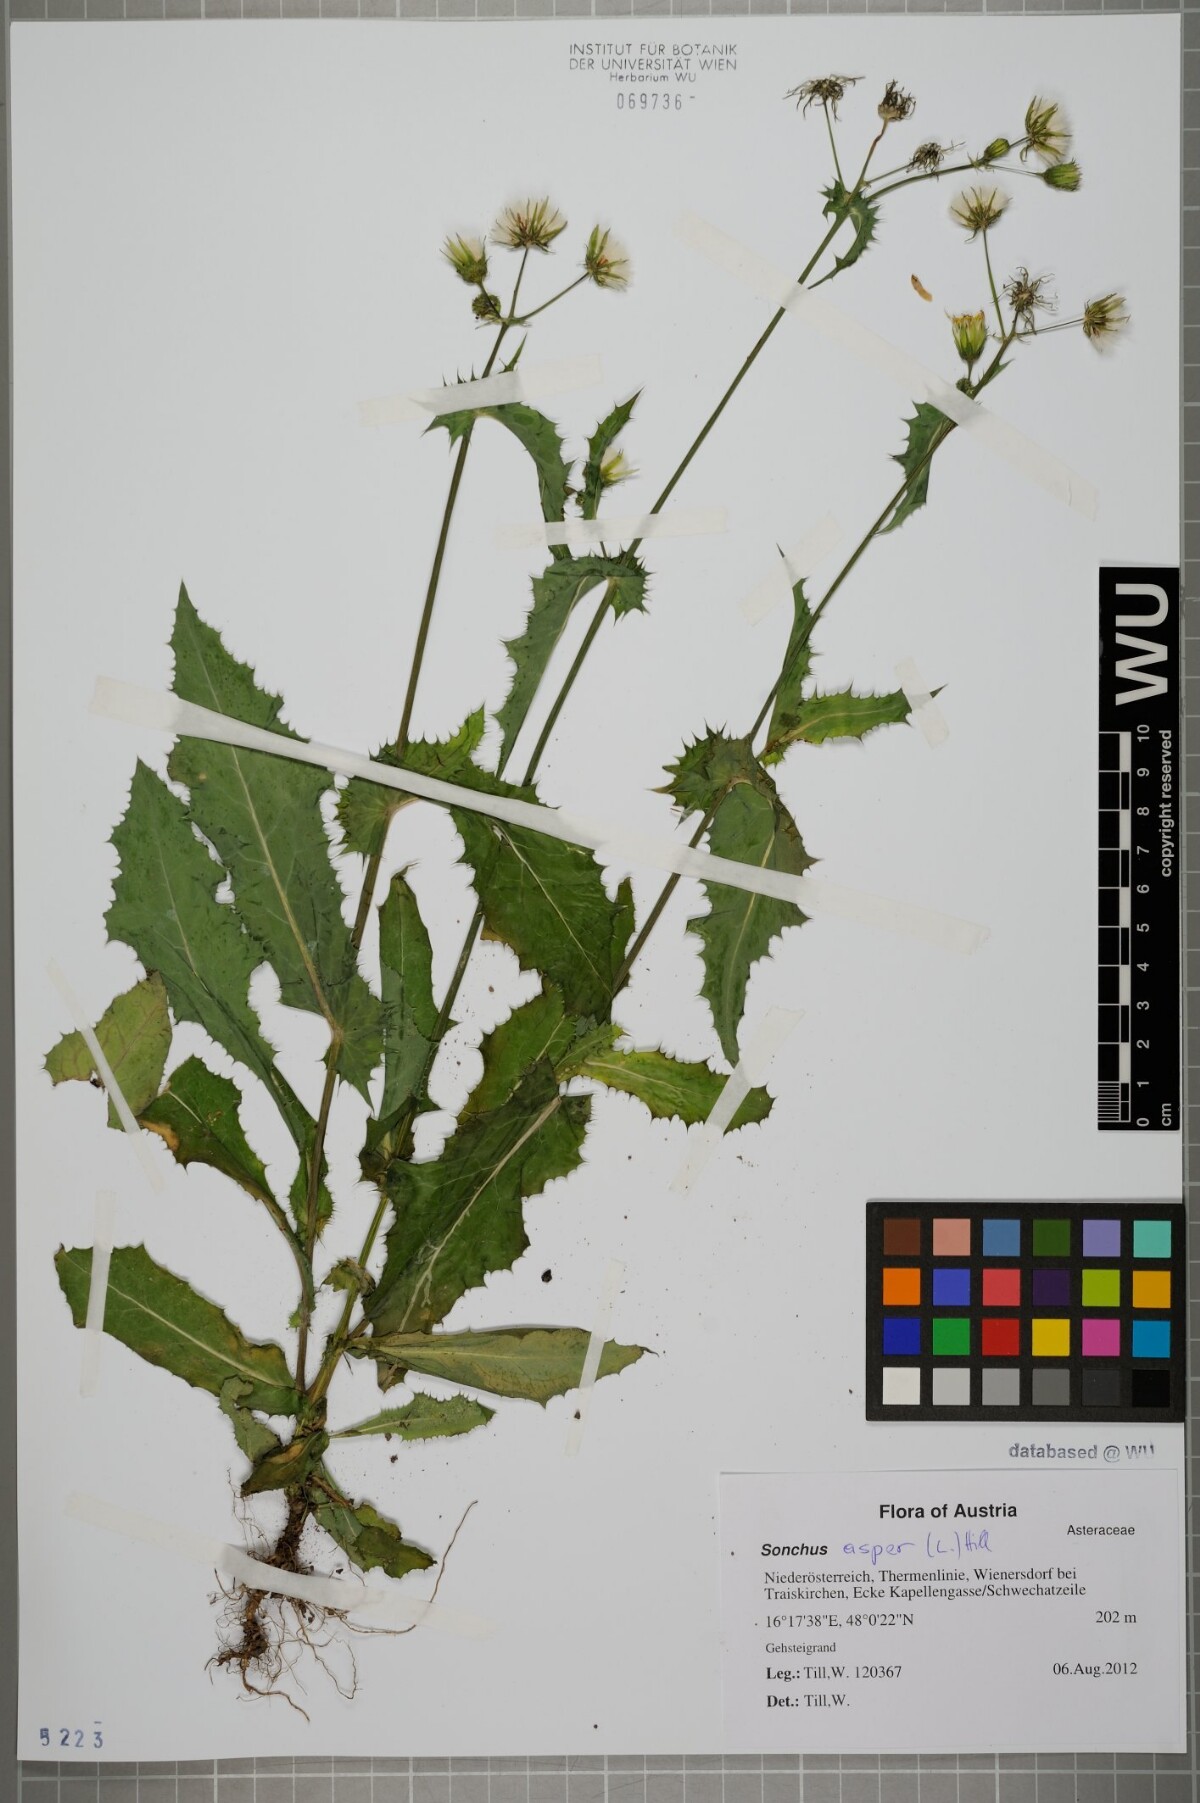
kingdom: Plantae
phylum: Tracheophyta
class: Magnoliopsida
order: Asterales
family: Asteraceae
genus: Sonchus
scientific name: Sonchus asper
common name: Prickly sow-thistle
